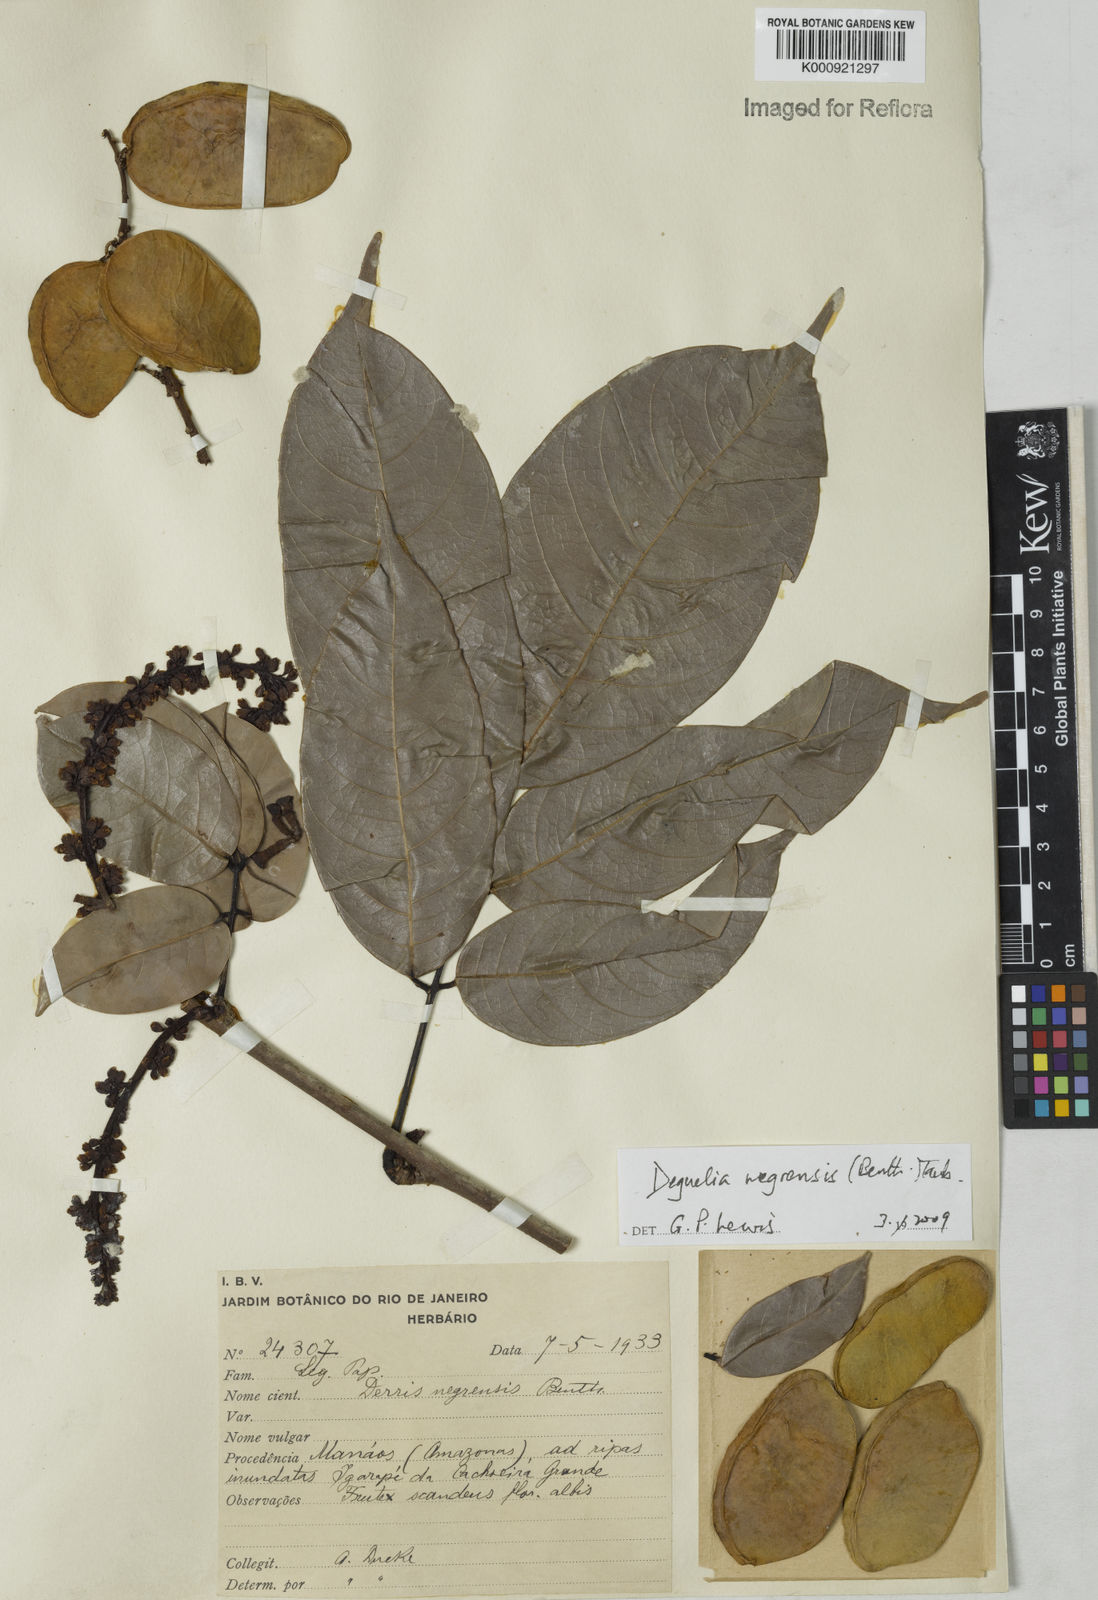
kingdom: Plantae
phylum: Tracheophyta
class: Magnoliopsida
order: Fabales
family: Fabaceae
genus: Deguelia
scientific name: Deguelia negrensis
